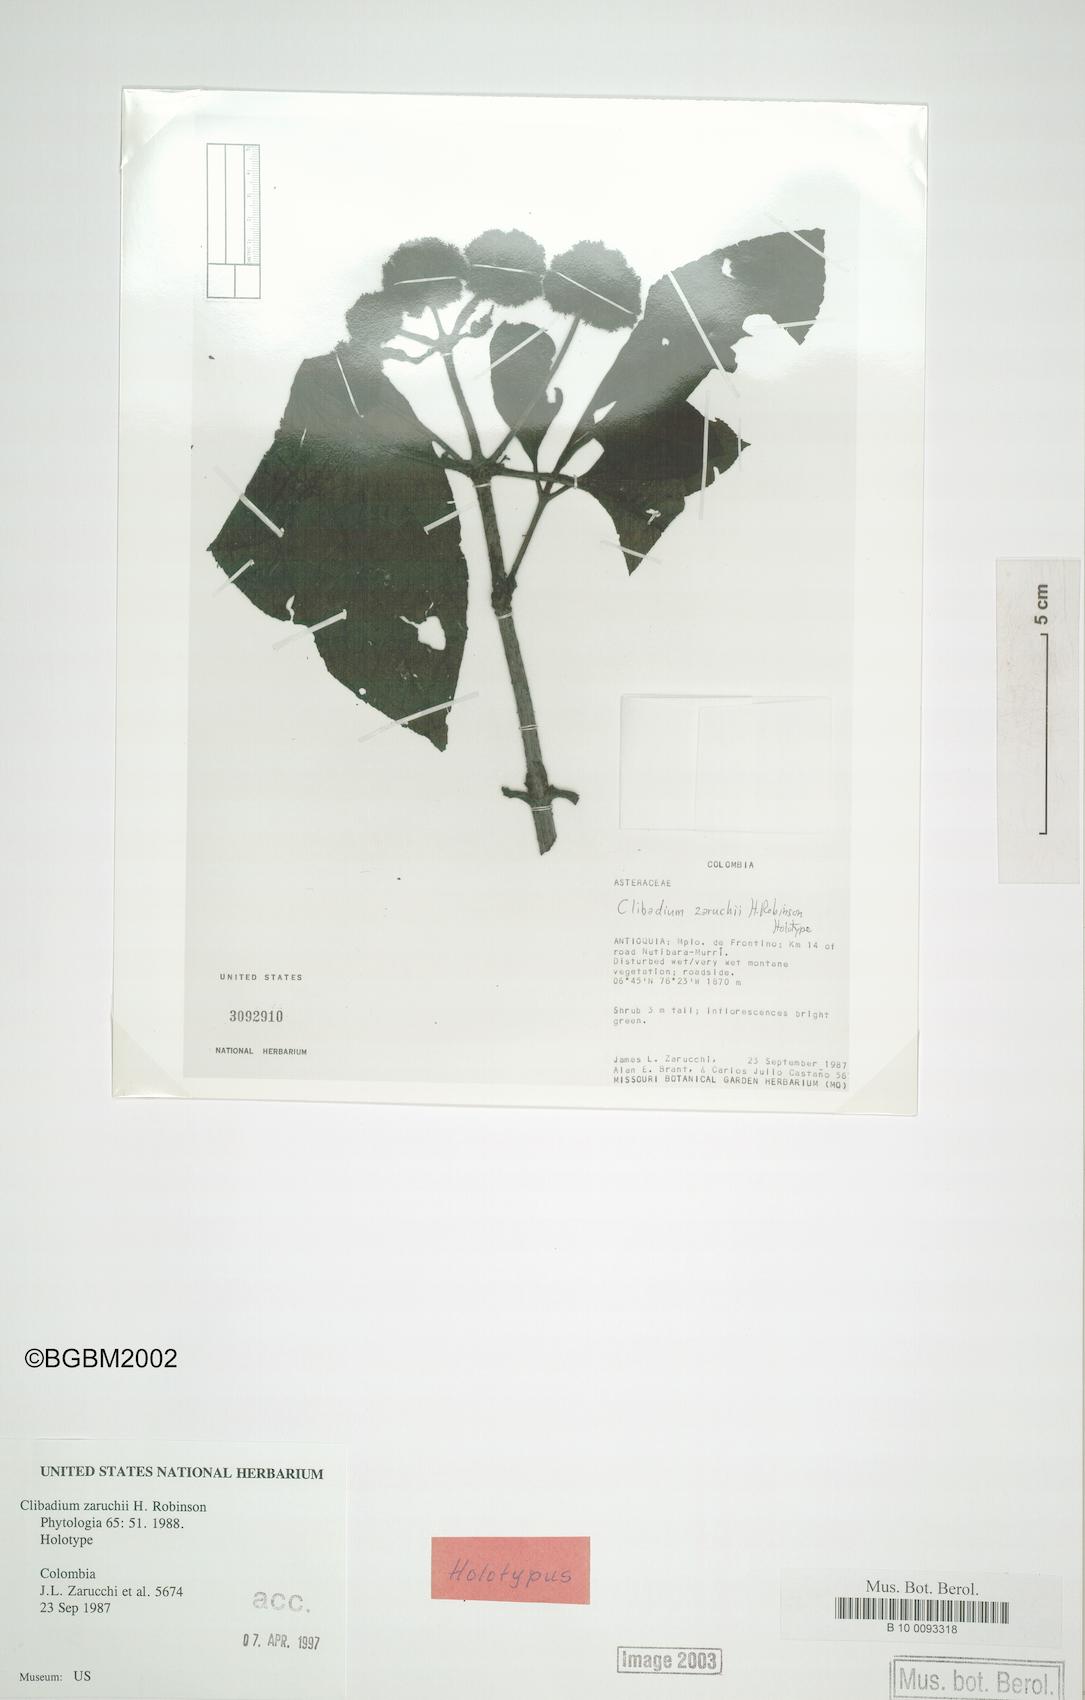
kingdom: Plantae
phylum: Tracheophyta
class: Magnoliopsida
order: Asterales
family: Asteraceae
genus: Clibadium
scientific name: Clibadium zarucchii
